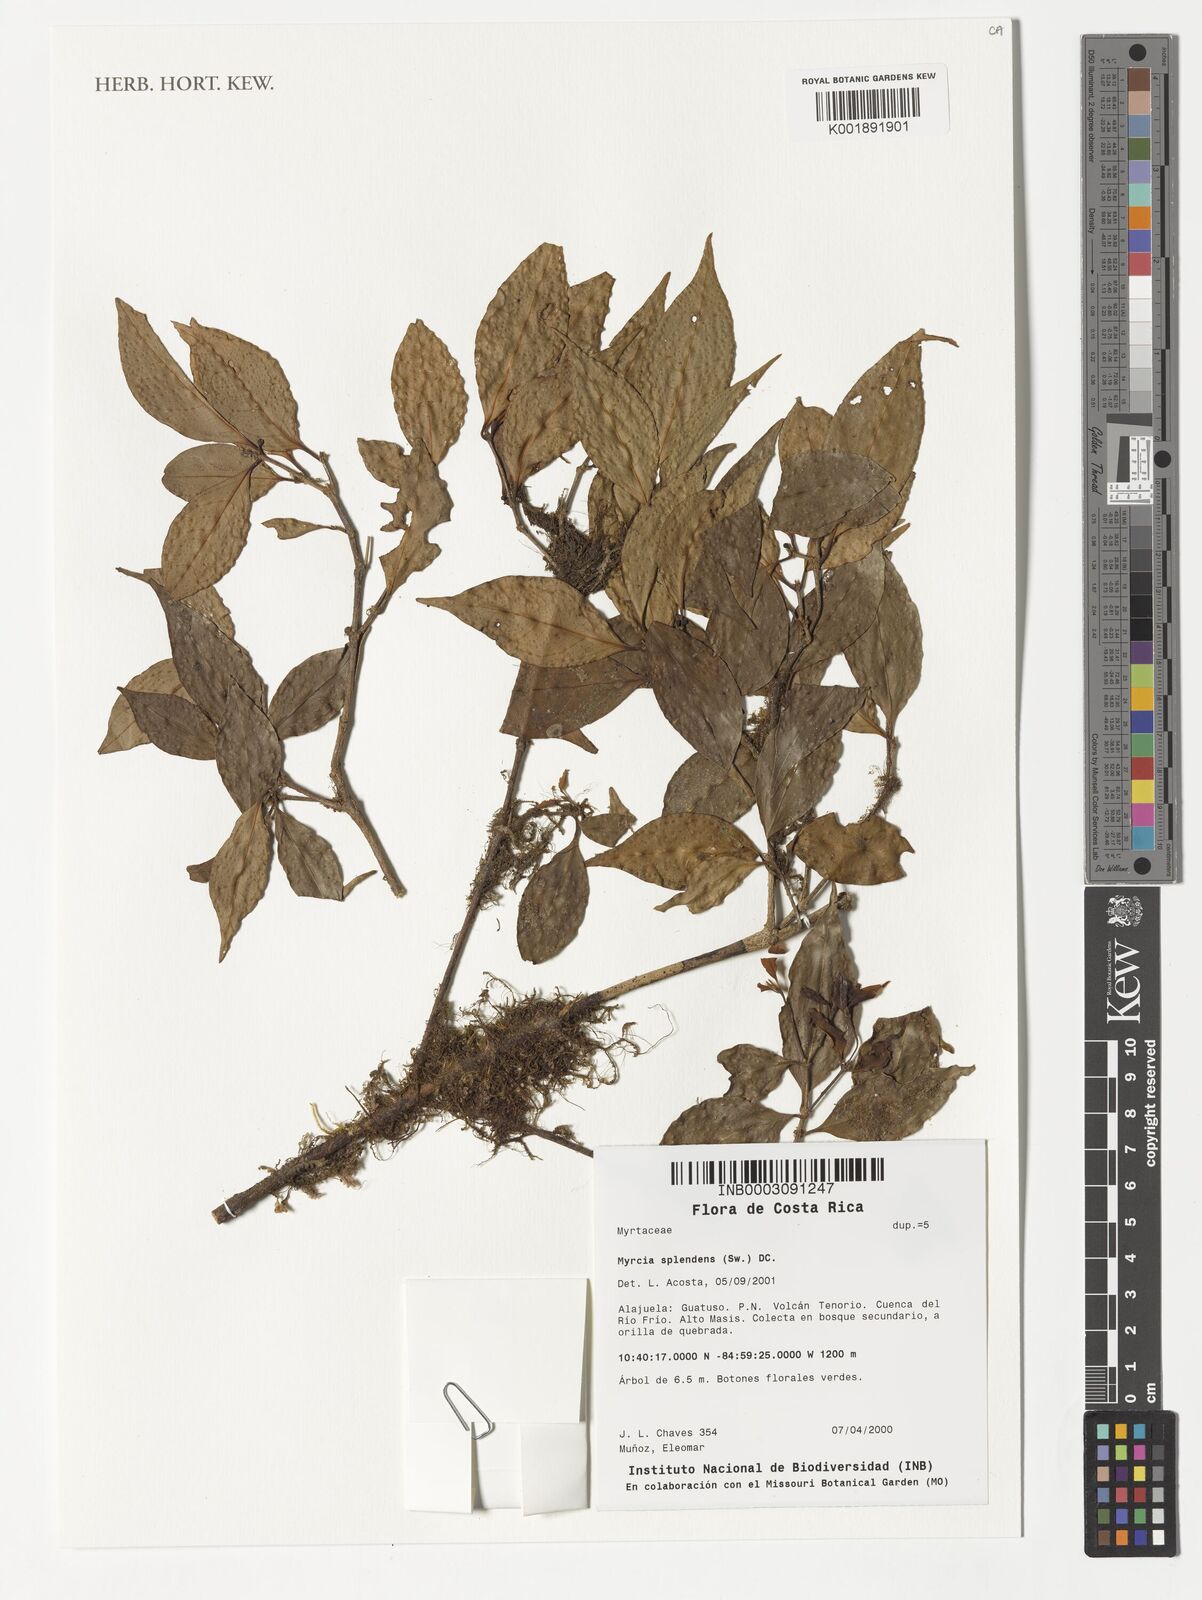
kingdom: Plantae
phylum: Tracheophyta
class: Magnoliopsida
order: Myrtales
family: Myrtaceae
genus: Myrcia
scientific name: Myrcia splendens
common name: Surinam cherry
